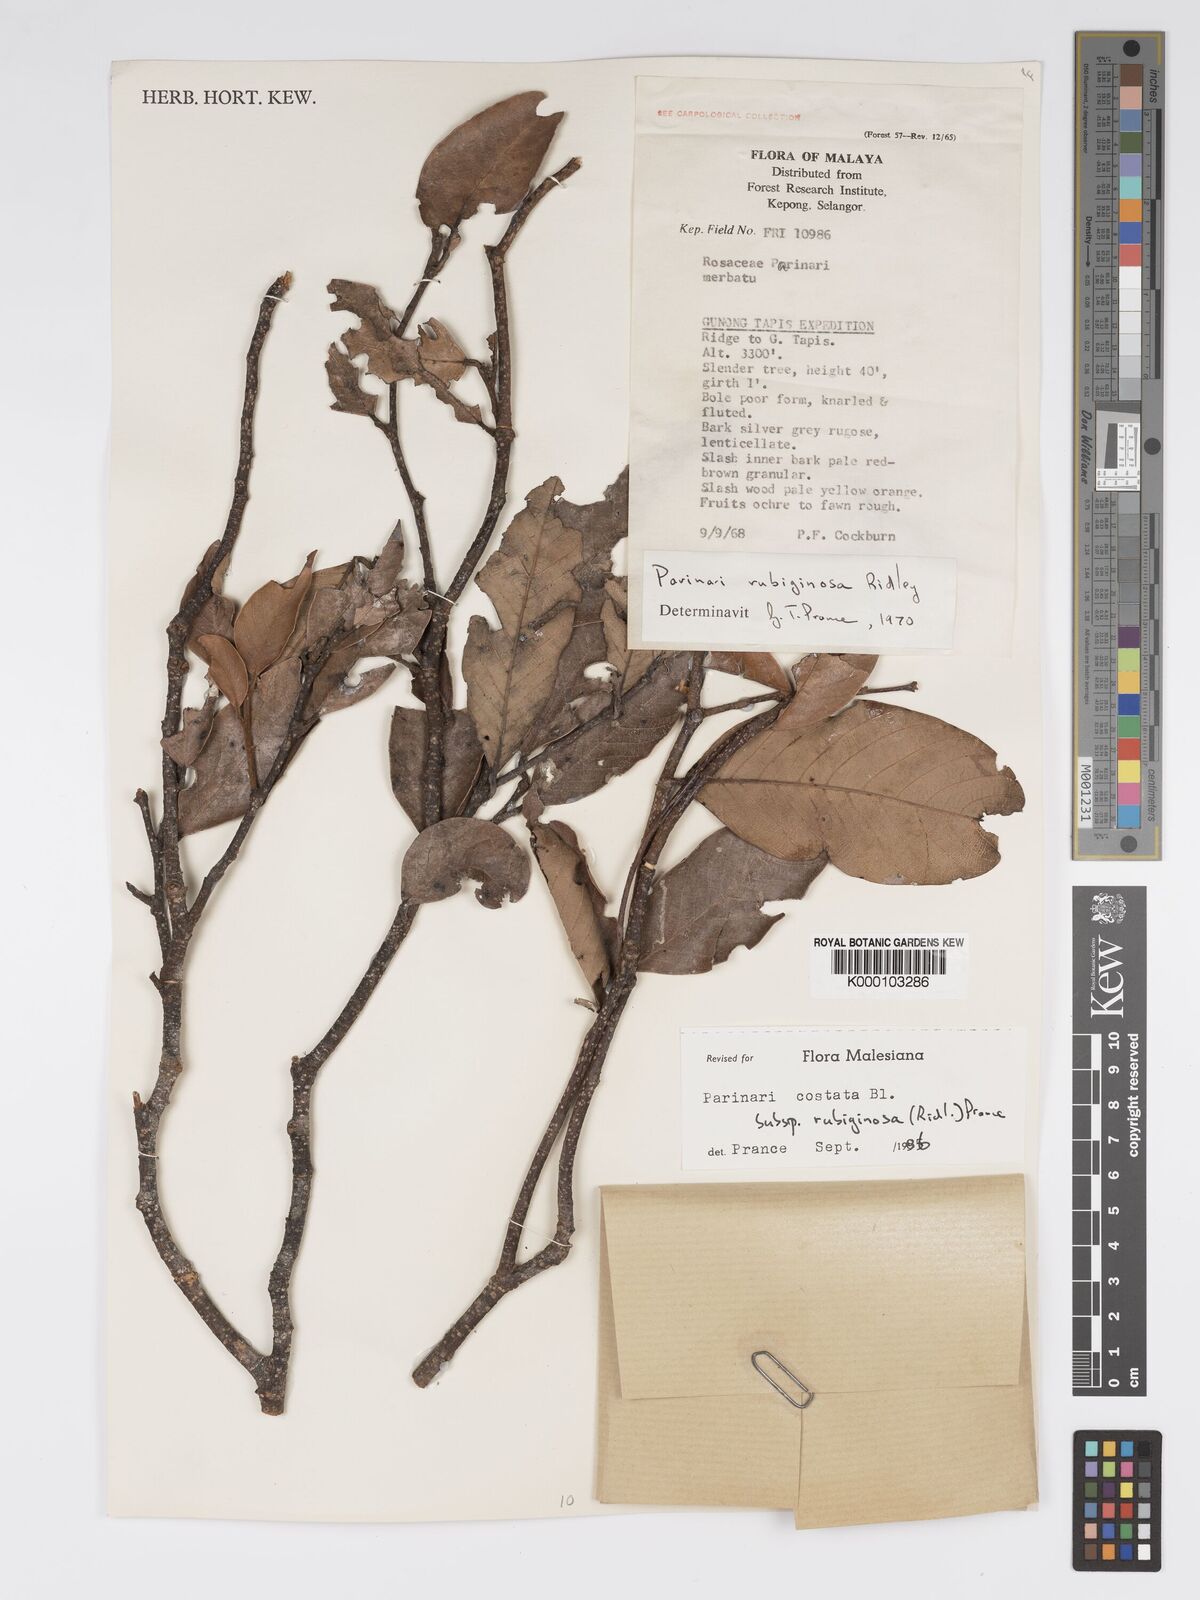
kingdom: Plantae
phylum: Tracheophyta
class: Magnoliopsida
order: Malpighiales
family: Chrysobalanaceae
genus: Parinari
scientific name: Parinari costata
